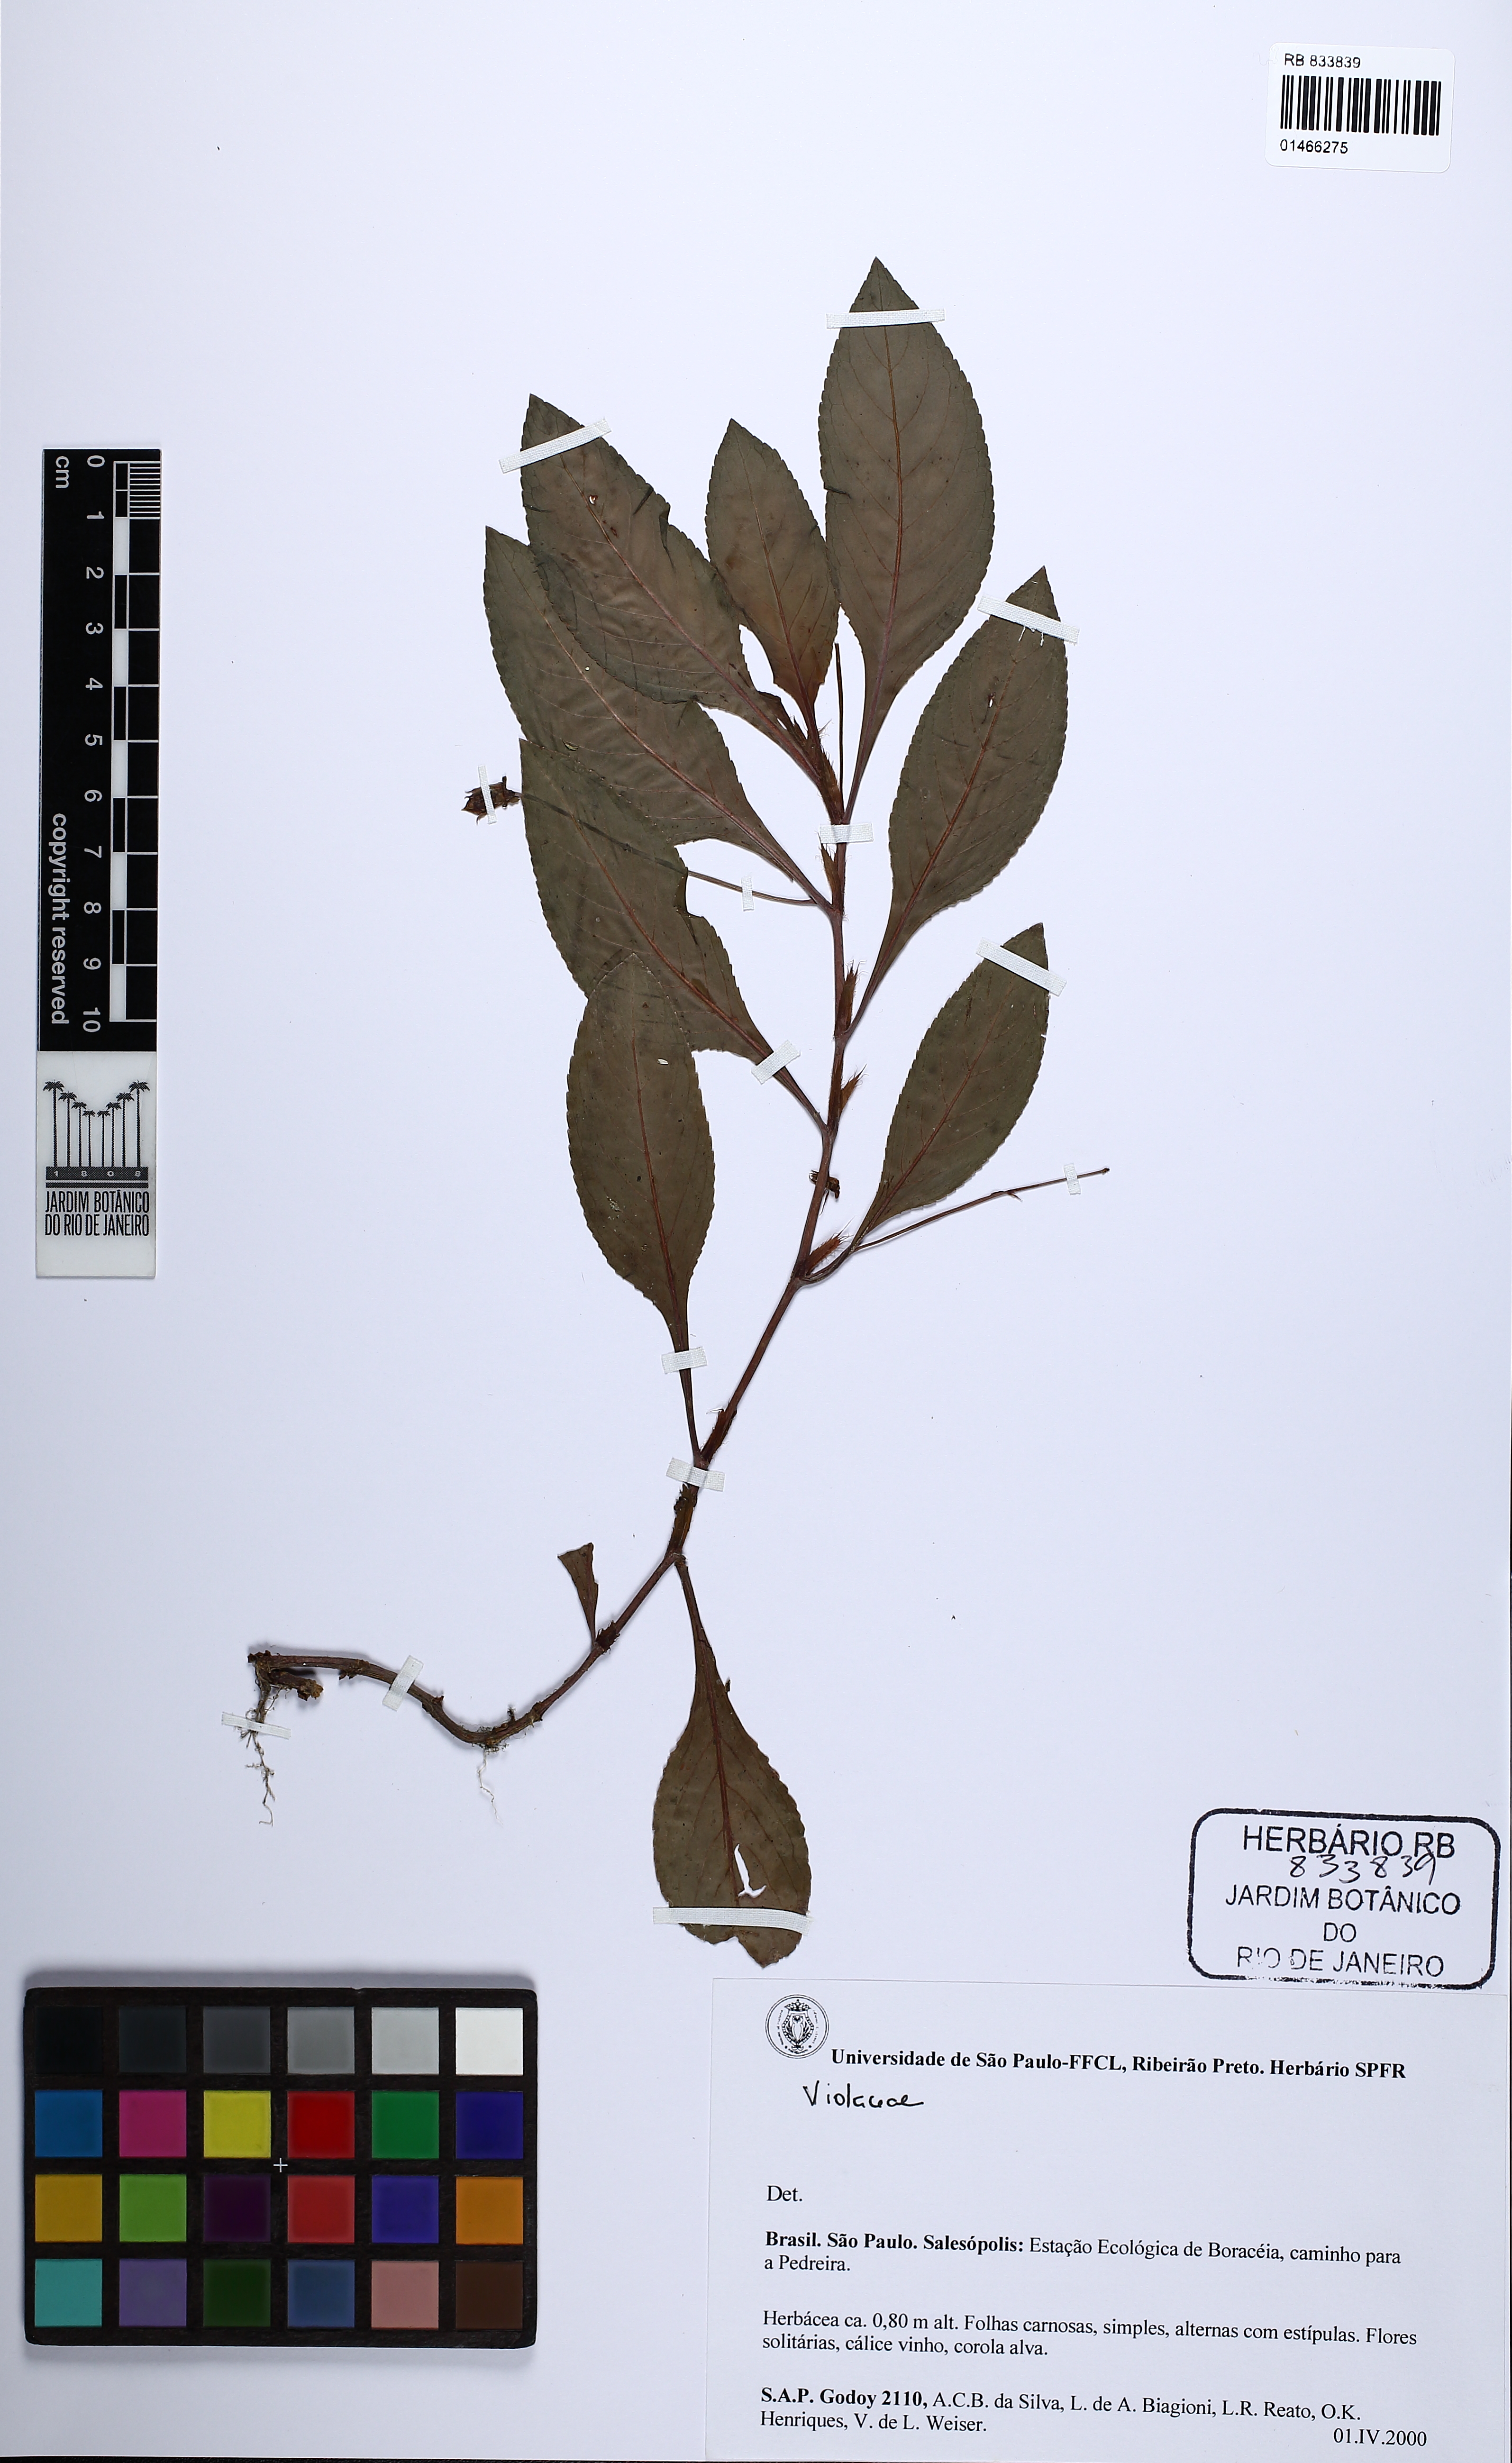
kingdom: Plantae
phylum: Tracheophyta
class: Magnoliopsida
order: Malpighiales
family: Violaceae
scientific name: Violaceae
